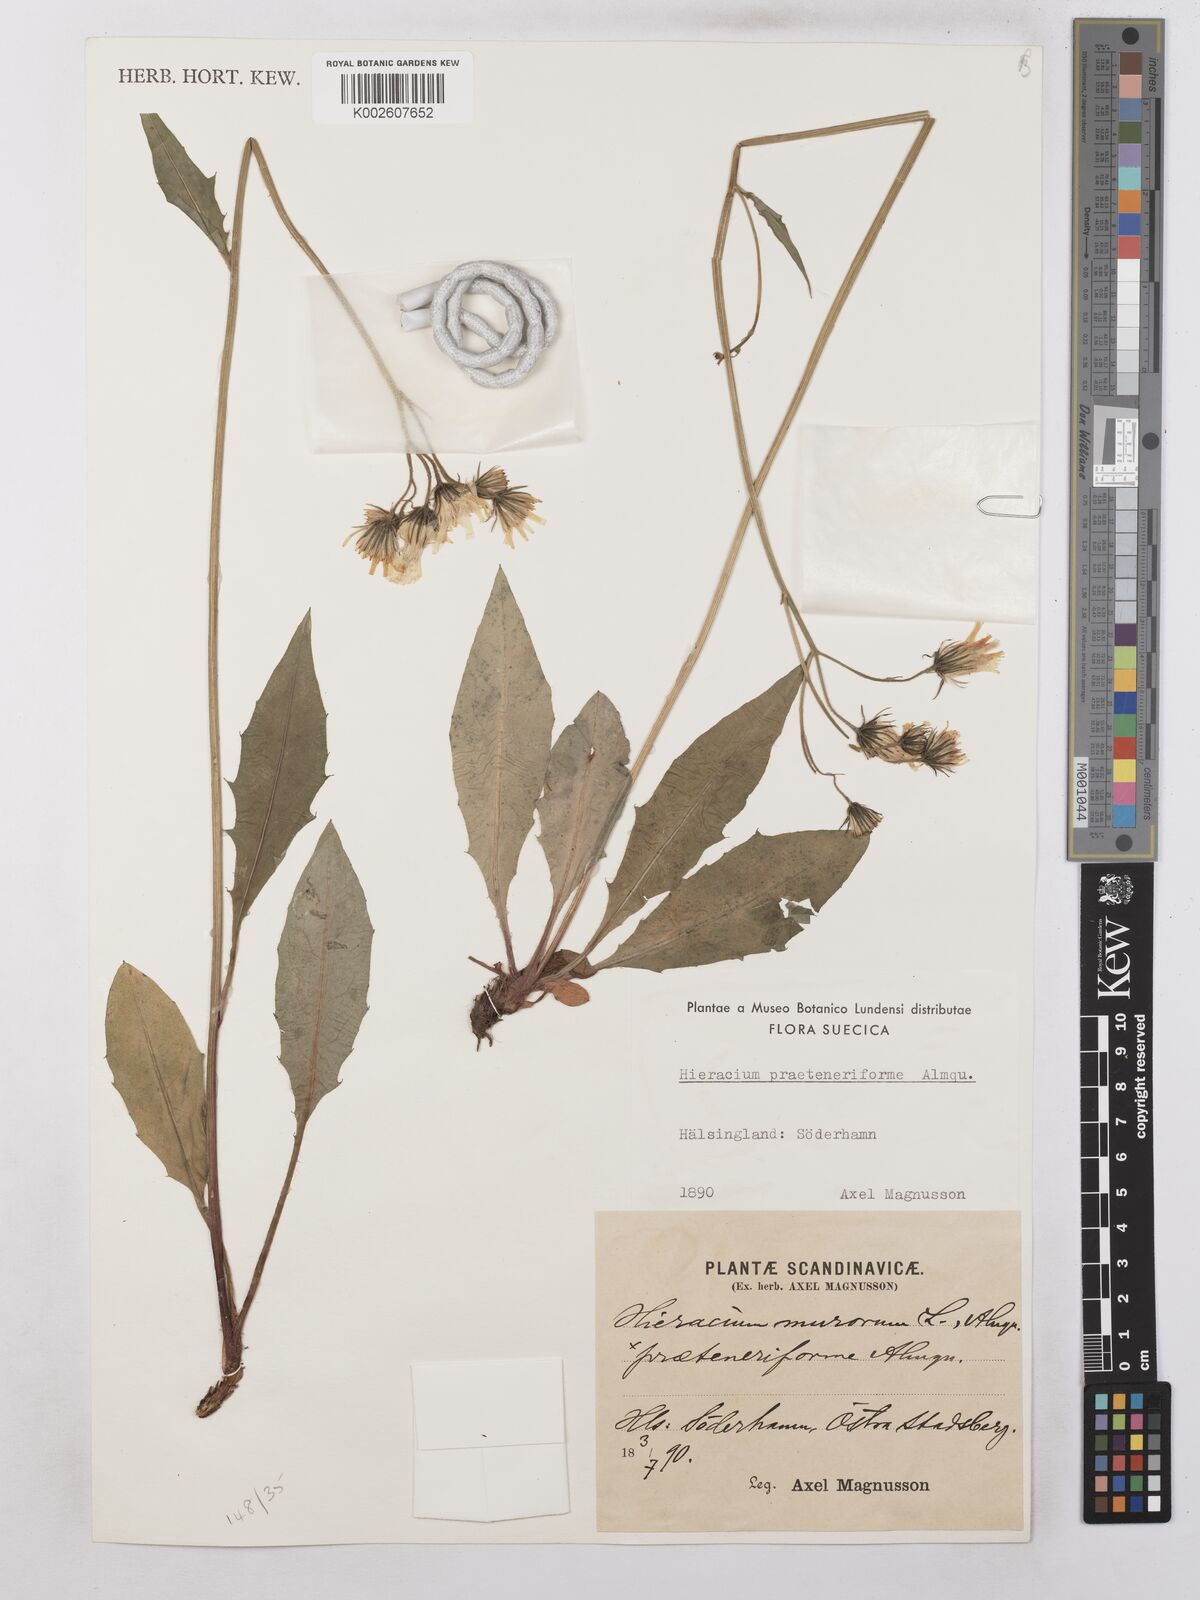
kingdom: Plantae
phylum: Tracheophyta
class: Magnoliopsida
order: Asterales
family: Asteraceae
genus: Hieracium
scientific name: Hieracium subramosum
